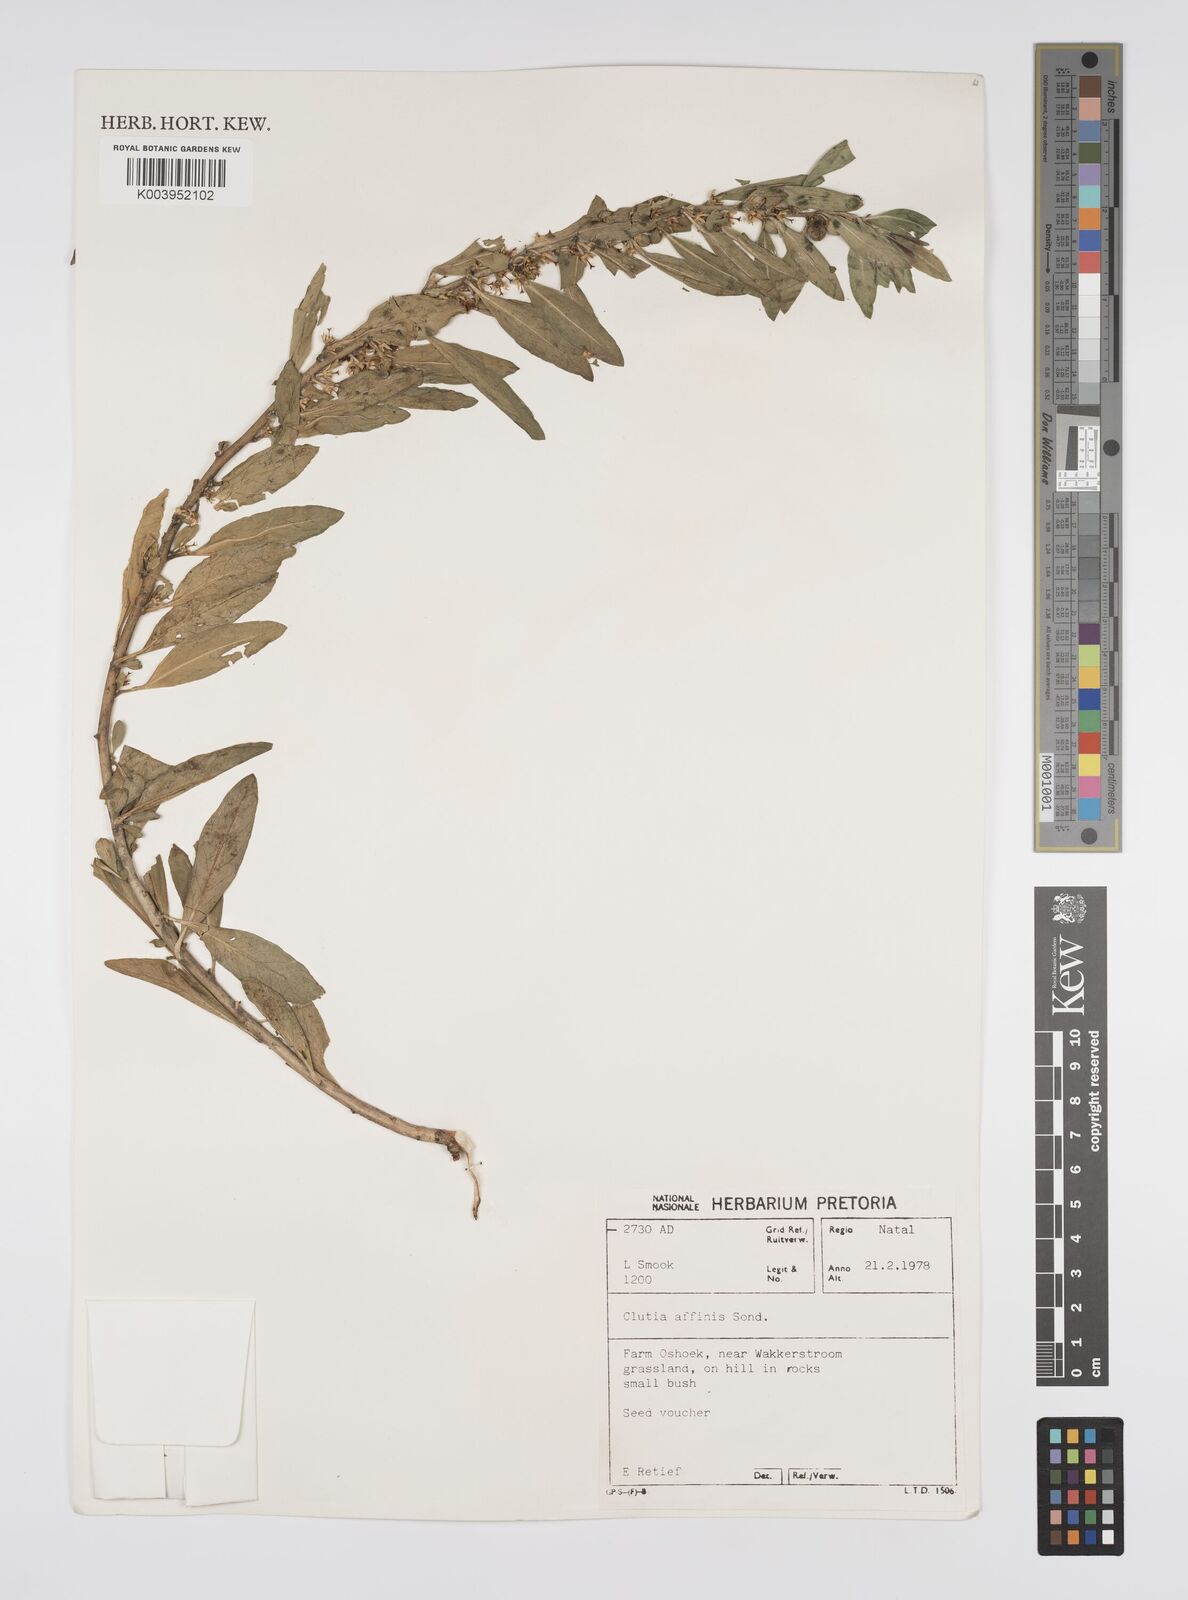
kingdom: Plantae
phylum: Tracheophyta
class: Magnoliopsida
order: Malpighiales
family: Peraceae
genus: Clutia
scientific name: Clutia affinis
